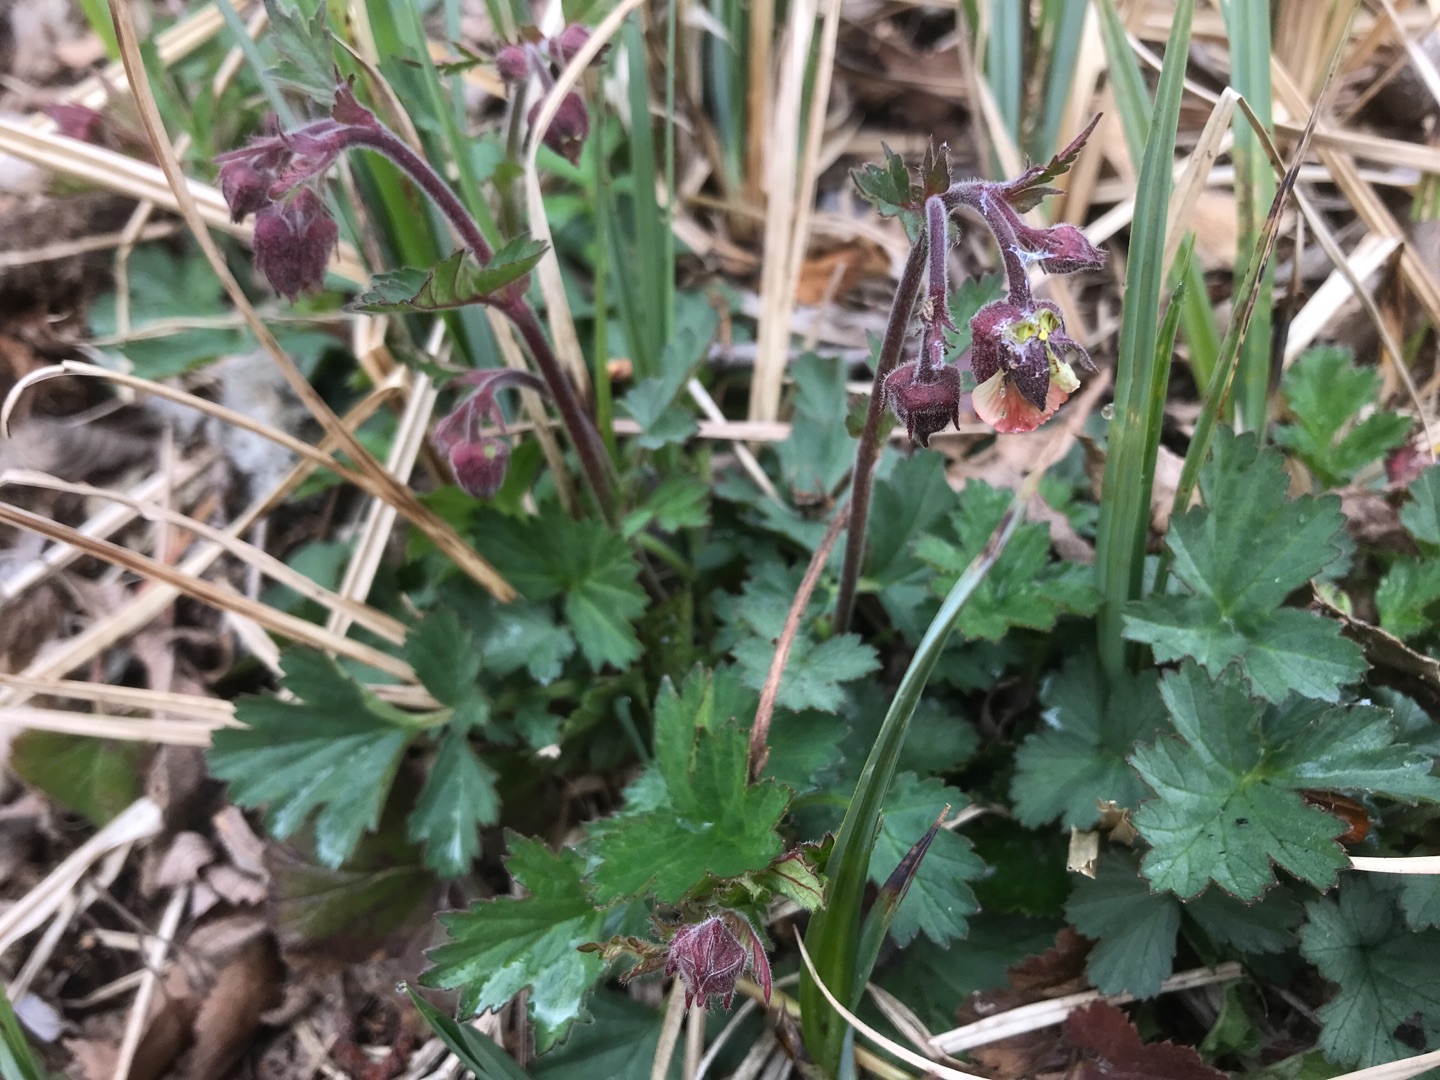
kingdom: Plantae
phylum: Tracheophyta
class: Magnoliopsida
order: Rosales
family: Rosaceae
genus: Geum
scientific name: Geum rivale
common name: Eng-nellikerod
